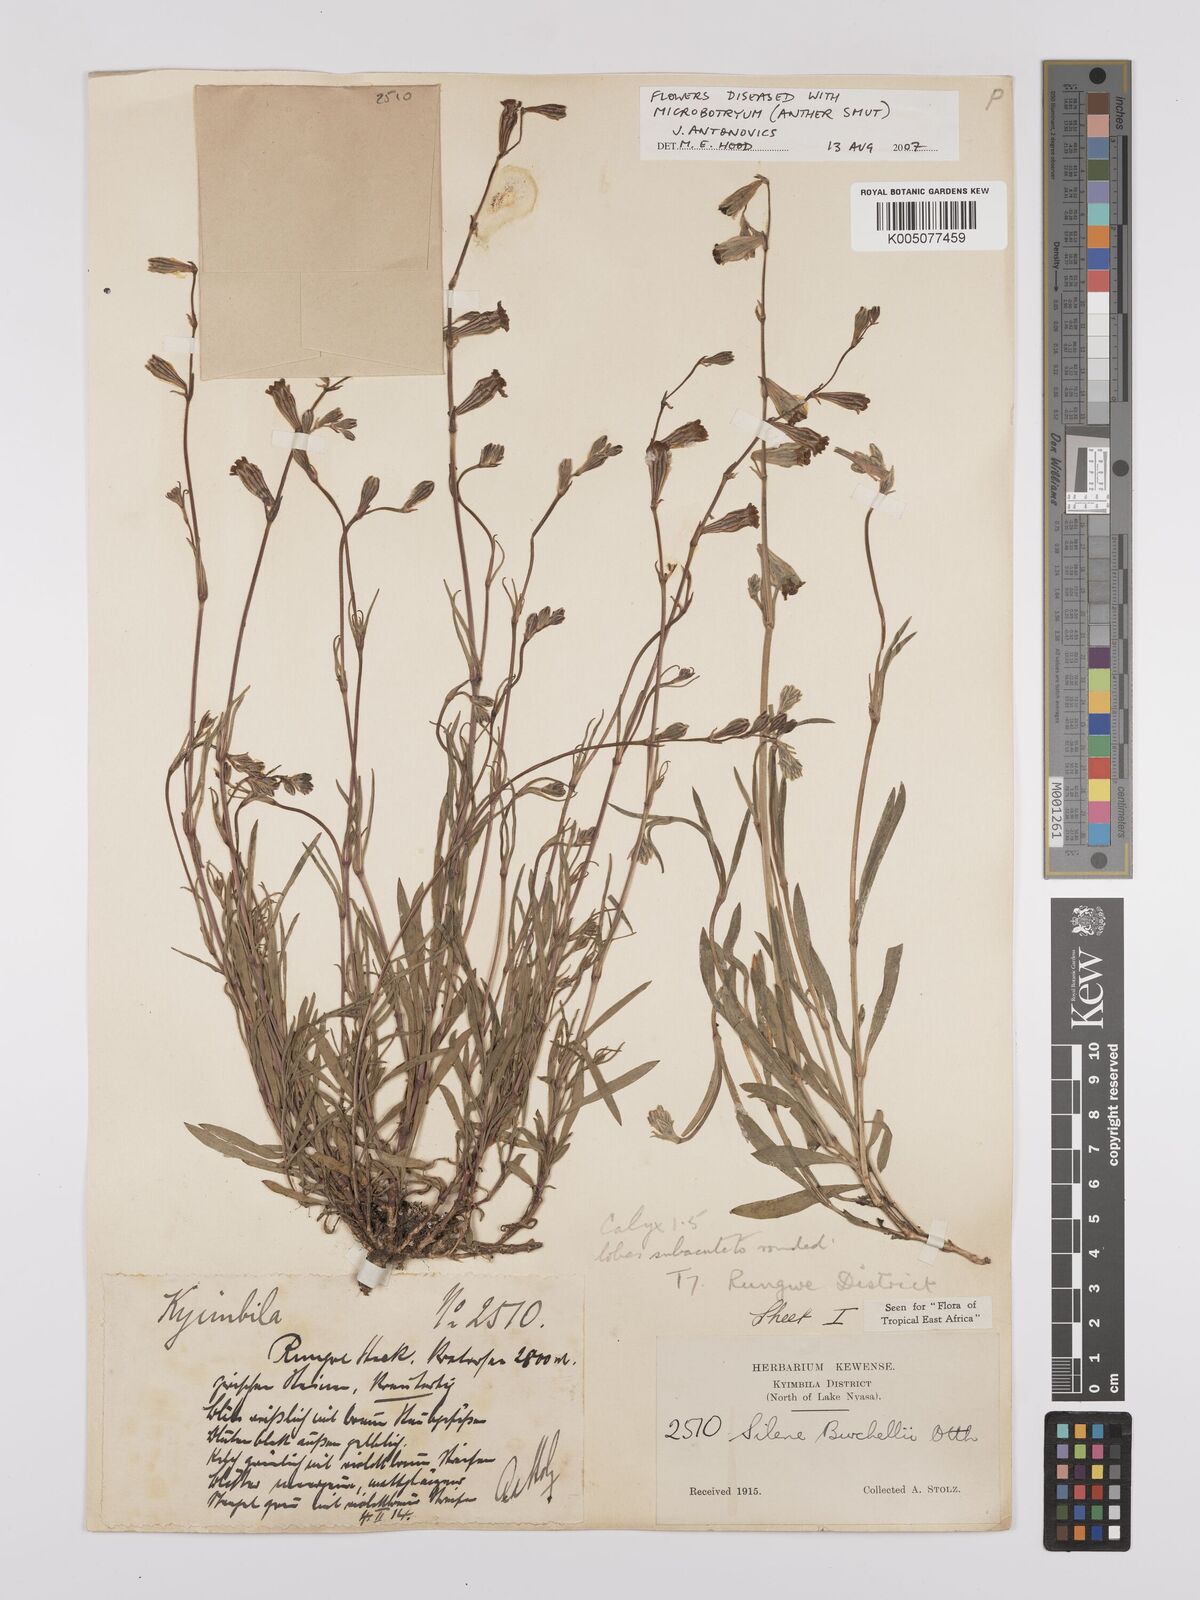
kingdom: Plantae
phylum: Tracheophyta
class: Magnoliopsida
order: Caryophyllales
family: Caryophyllaceae
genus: Silene
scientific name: Silene burchellii
